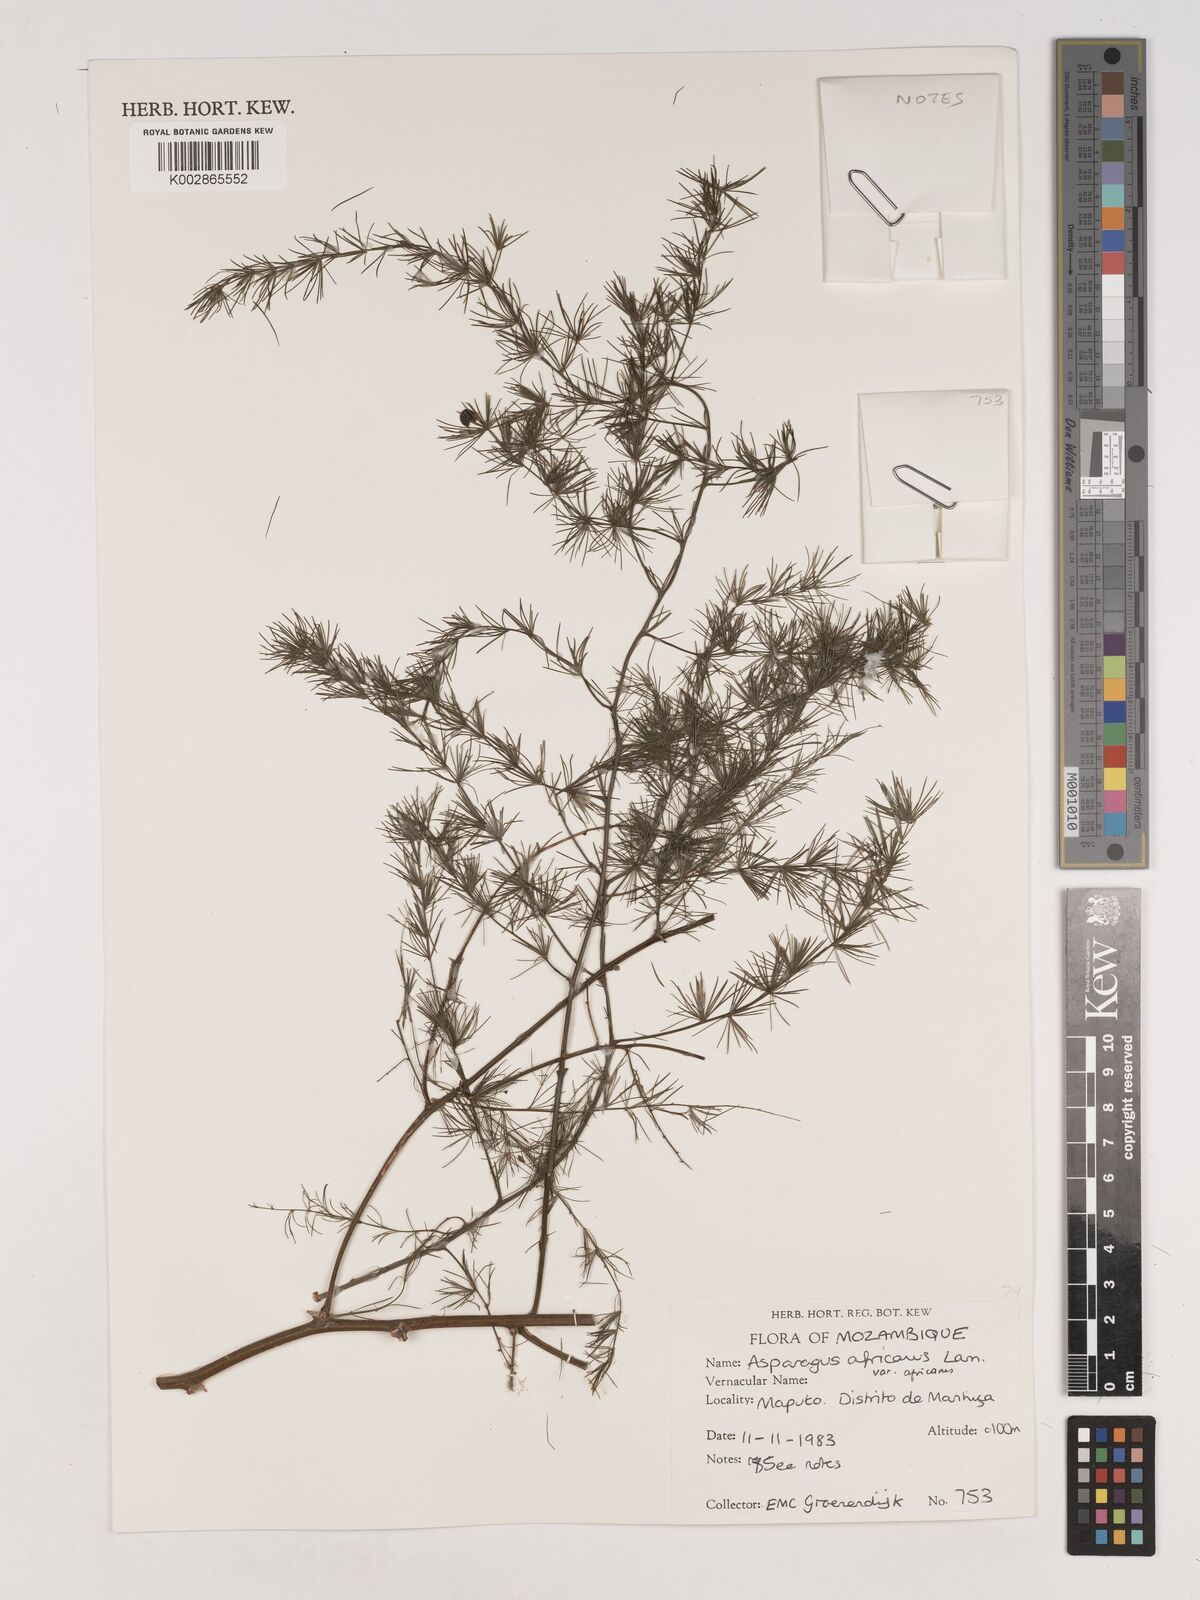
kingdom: Plantae
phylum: Tracheophyta
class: Liliopsida
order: Asparagales
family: Asparagaceae
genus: Asparagus
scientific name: Asparagus africanus
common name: Asparagus-fern
